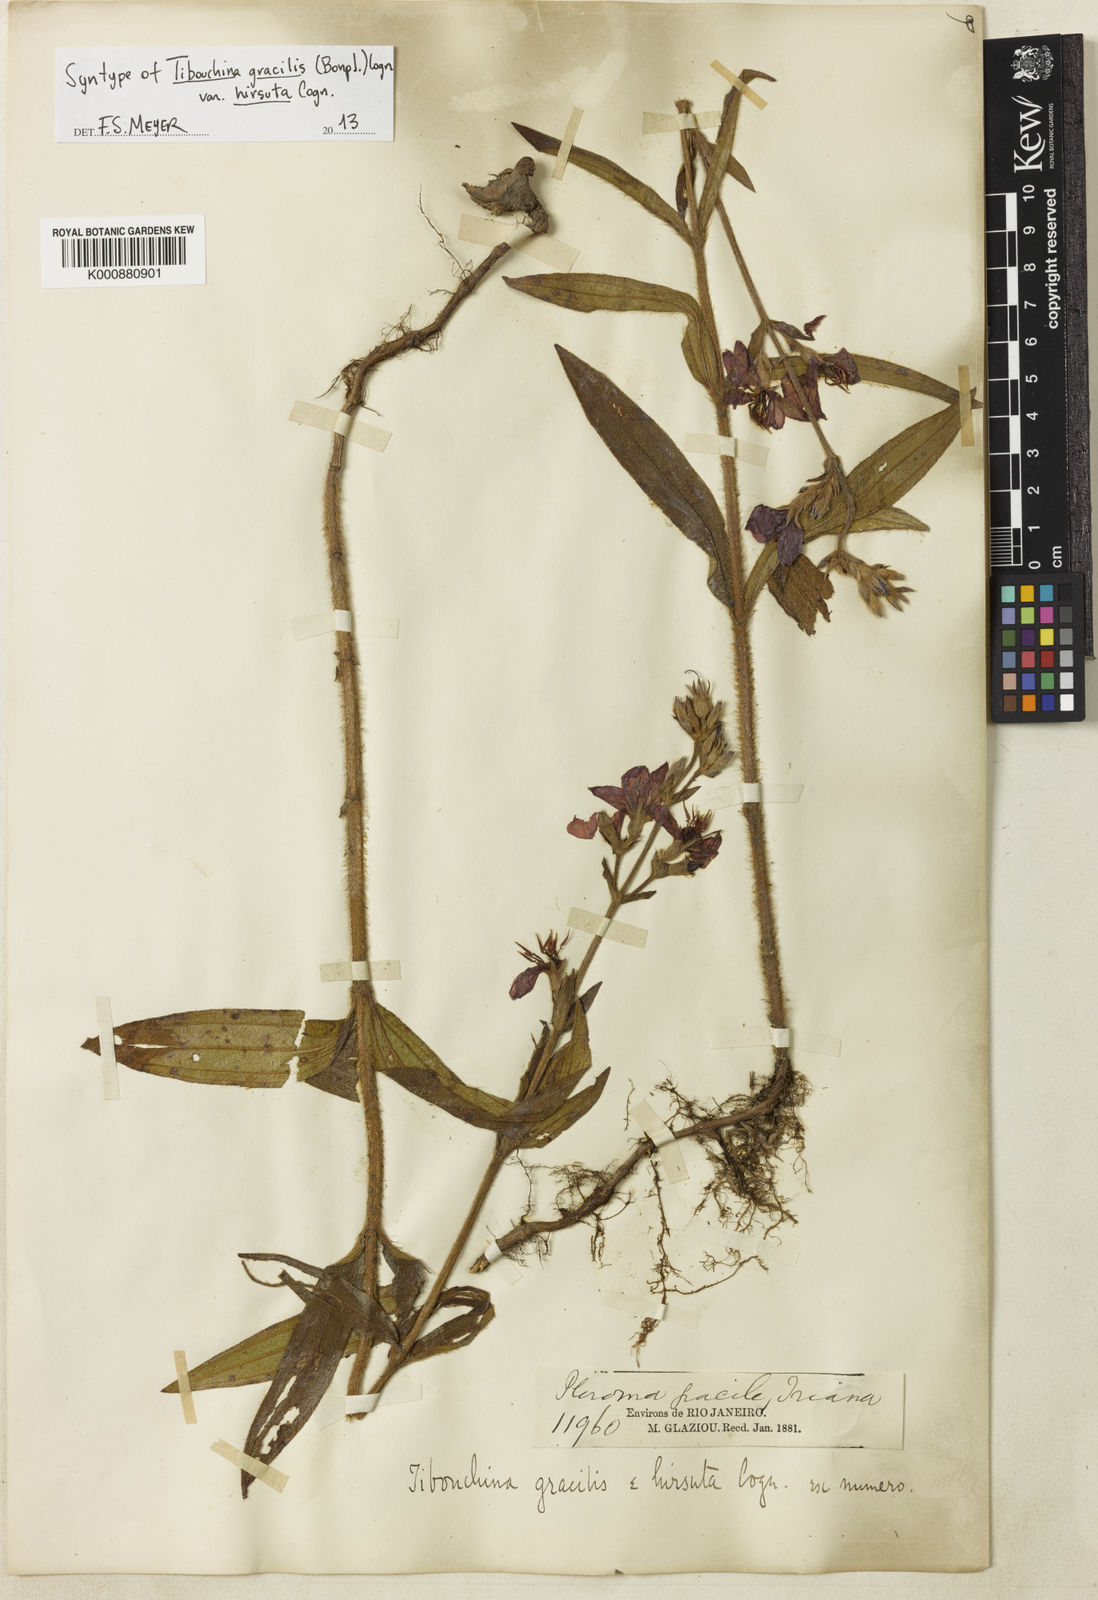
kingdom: Plantae
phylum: Tracheophyta
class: Magnoliopsida
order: Myrtales
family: Melastomataceae
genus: Chaetogastra
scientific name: Chaetogastra gracilis
